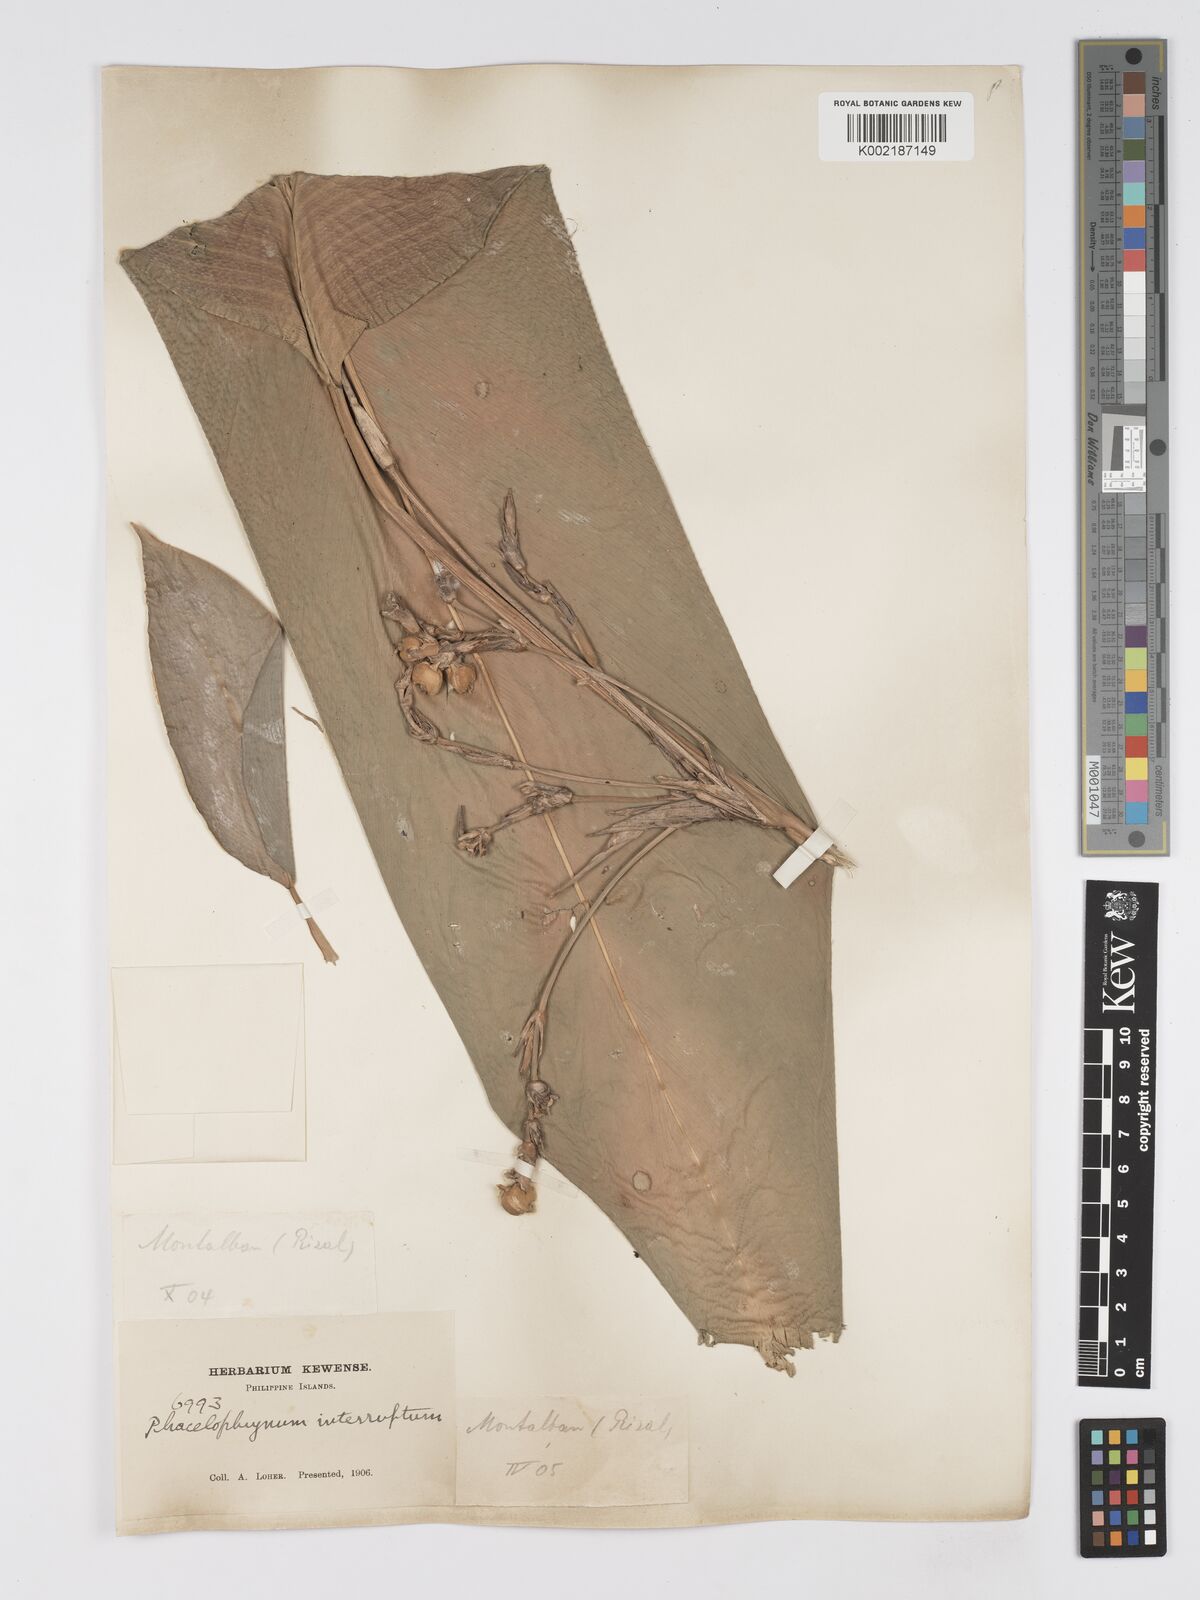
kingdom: Plantae
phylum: Tracheophyta
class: Liliopsida
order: Zingiberales
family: Marantaceae
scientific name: Marantaceae
